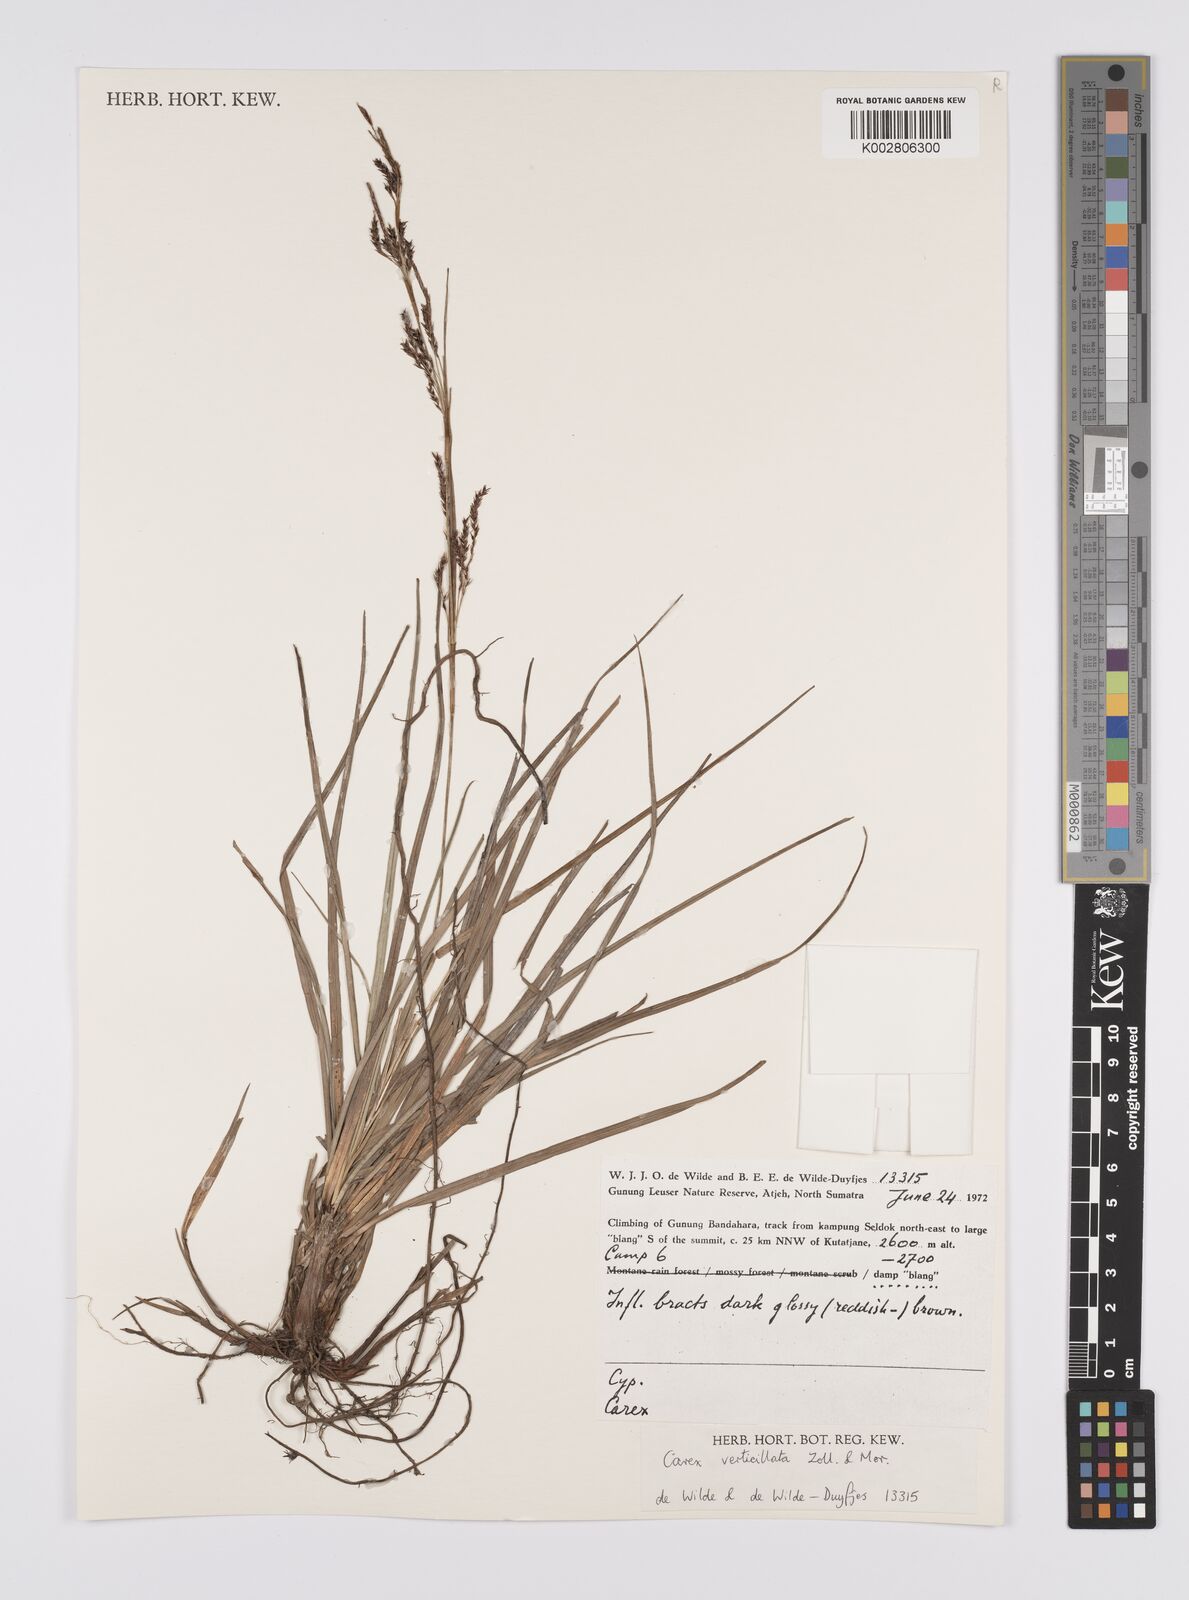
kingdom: Plantae
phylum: Tracheophyta
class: Liliopsida
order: Poales
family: Cyperaceae
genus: Carex
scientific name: Carex verticillata
